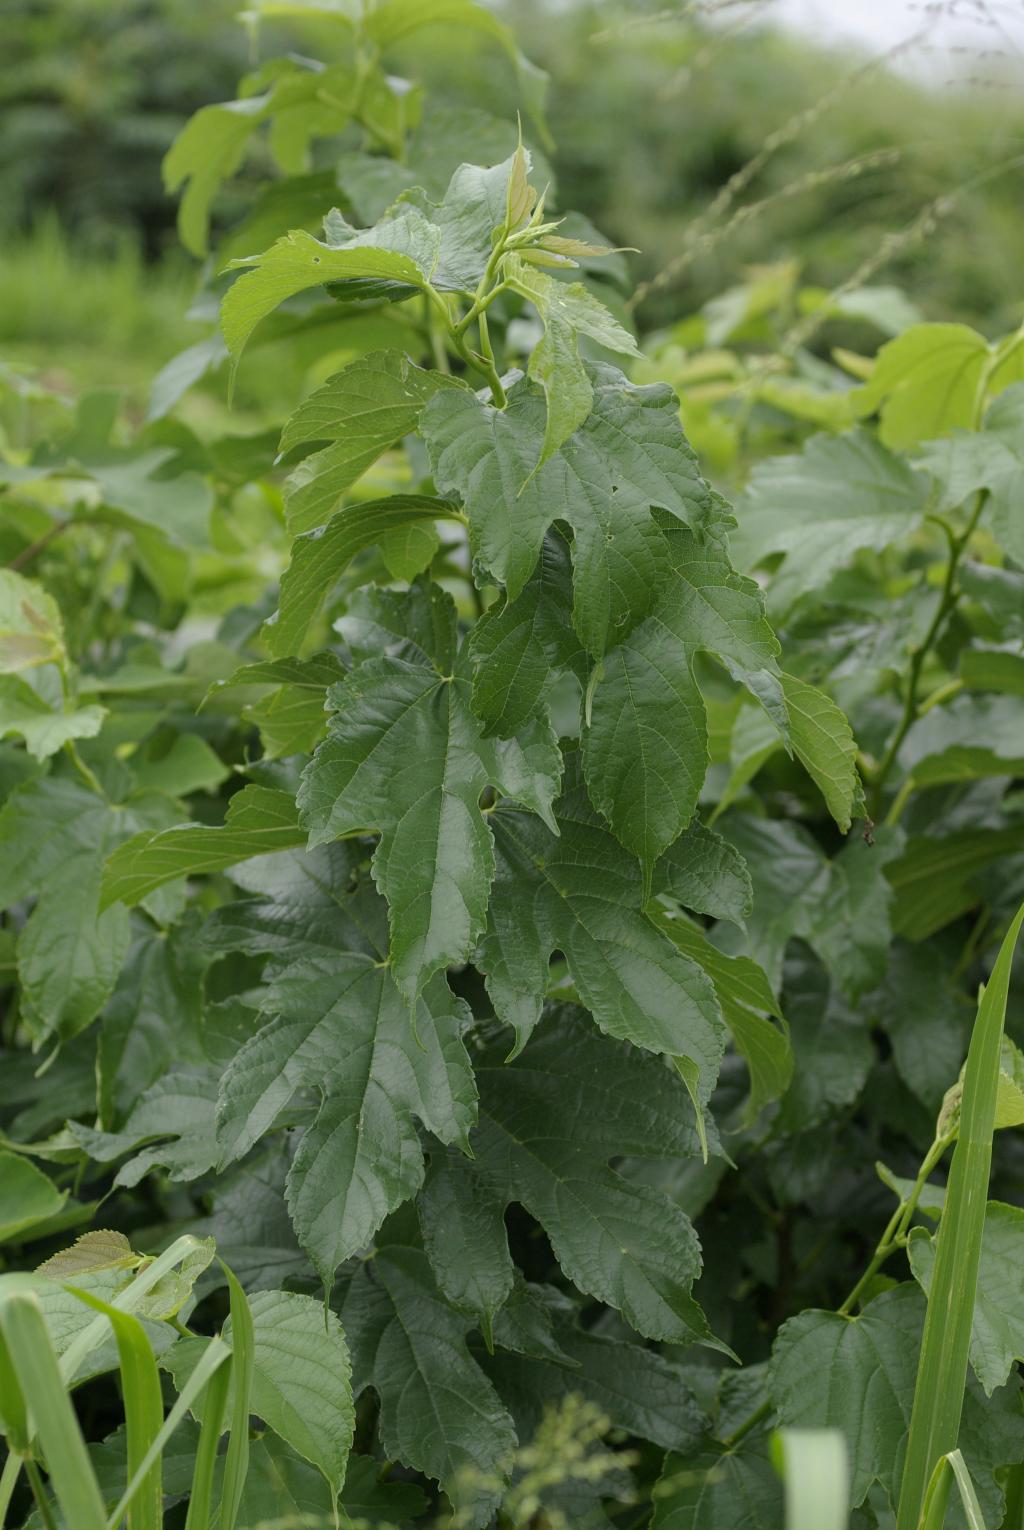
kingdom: Plantae
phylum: Tracheophyta
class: Magnoliopsida
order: Rosales
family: Moraceae
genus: Broussonetia
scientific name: Broussonetia papyrifera
